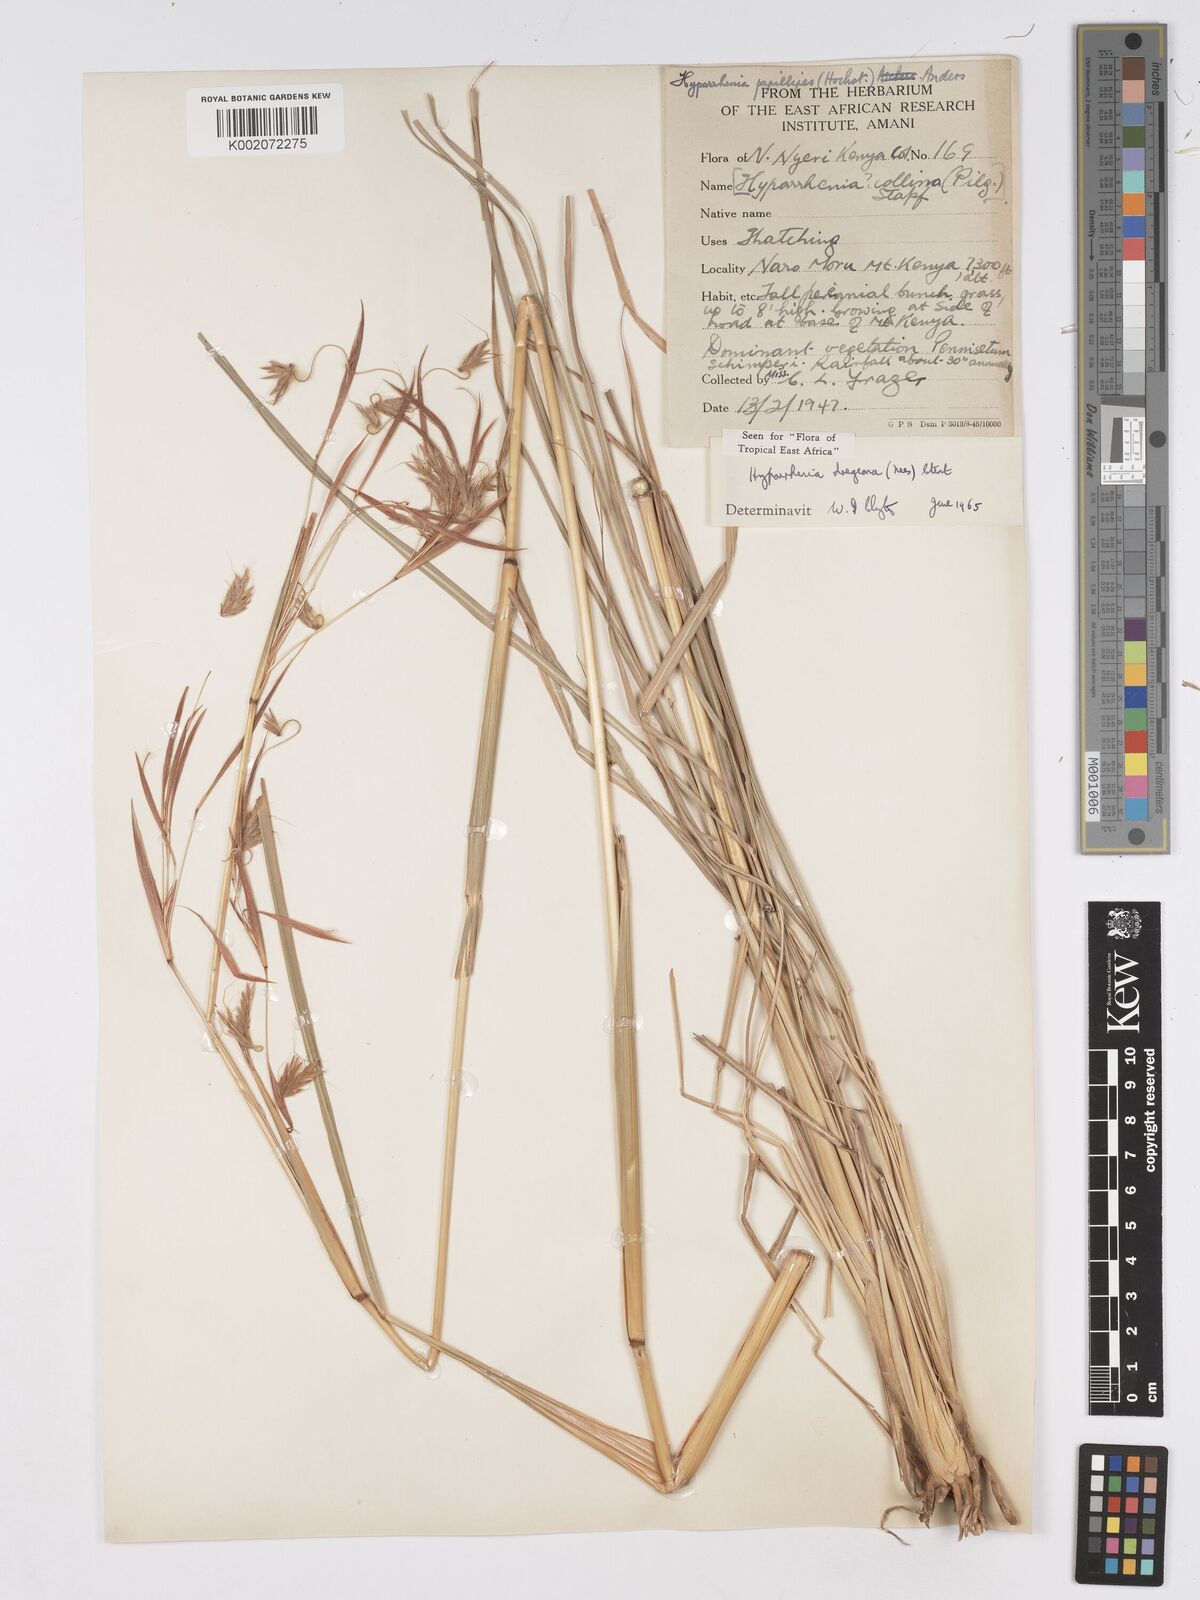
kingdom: Plantae
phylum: Tracheophyta
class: Liliopsida
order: Poales
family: Poaceae
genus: Hyparrhenia
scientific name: Hyparrhenia dregeana
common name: Silky thatching grass
